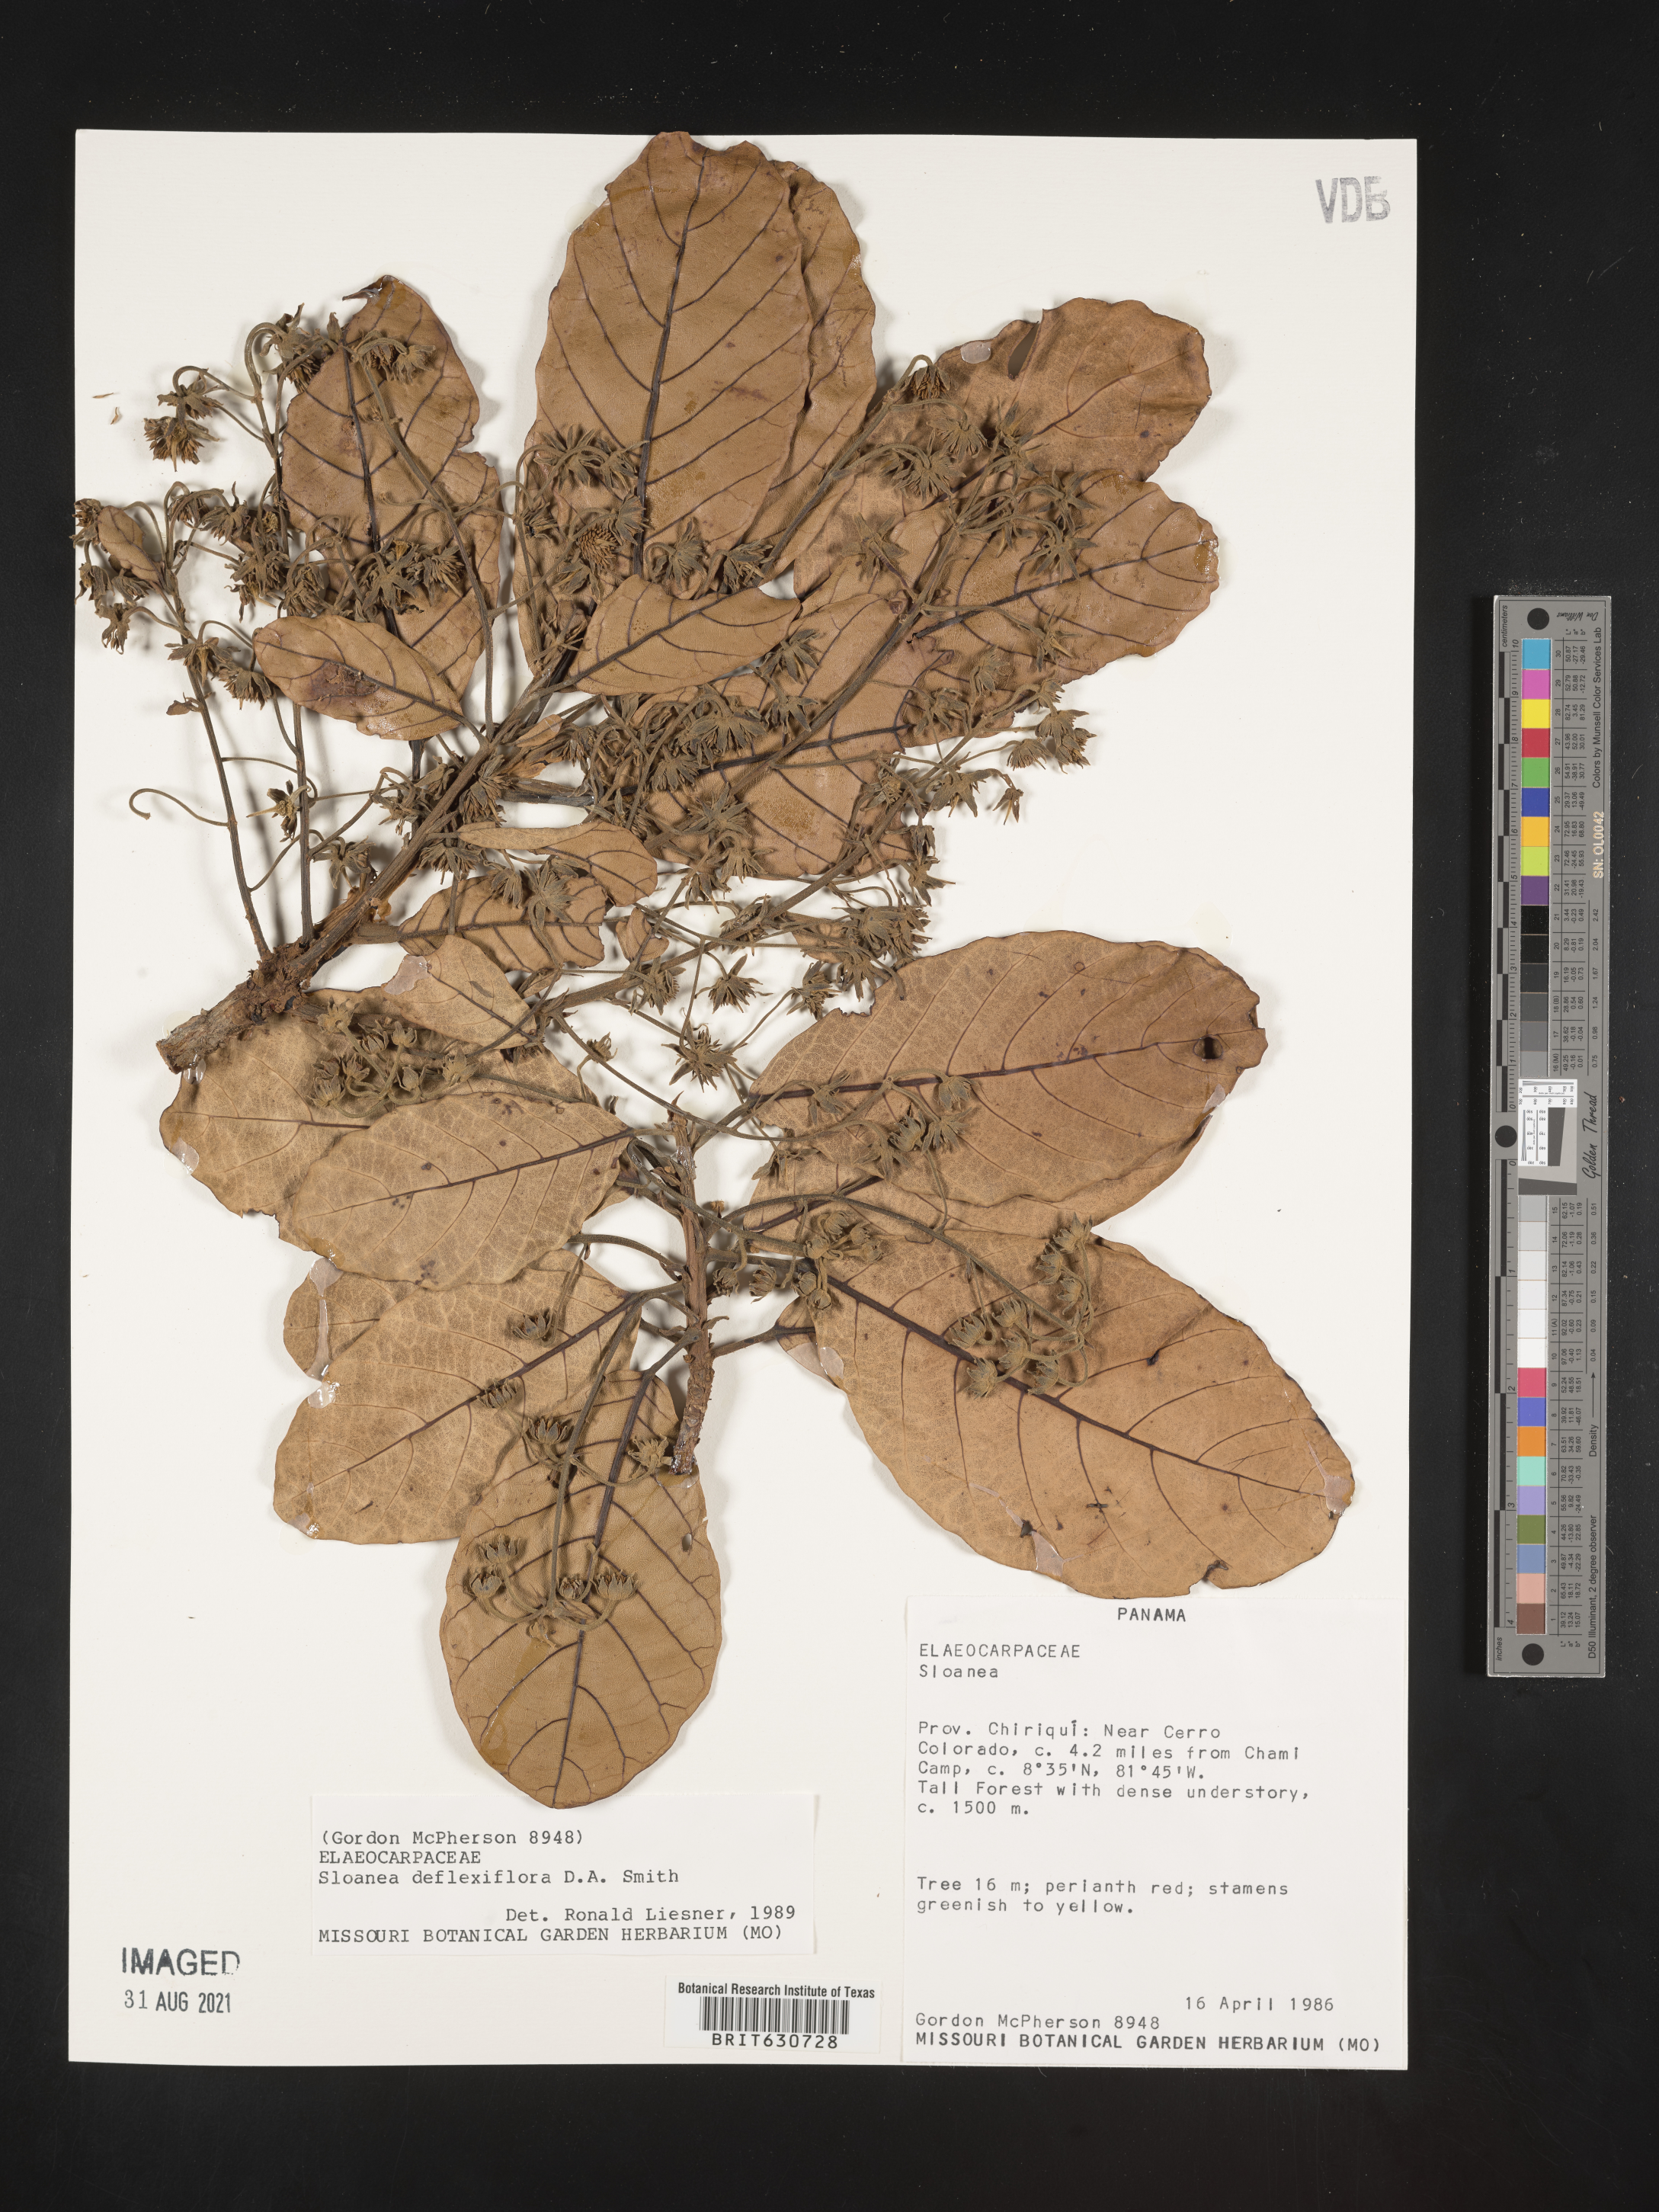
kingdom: Plantae
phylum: Tracheophyta
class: Magnoliopsida
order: Oxalidales
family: Elaeocarpaceae
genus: Sloanea
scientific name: Sloanea
